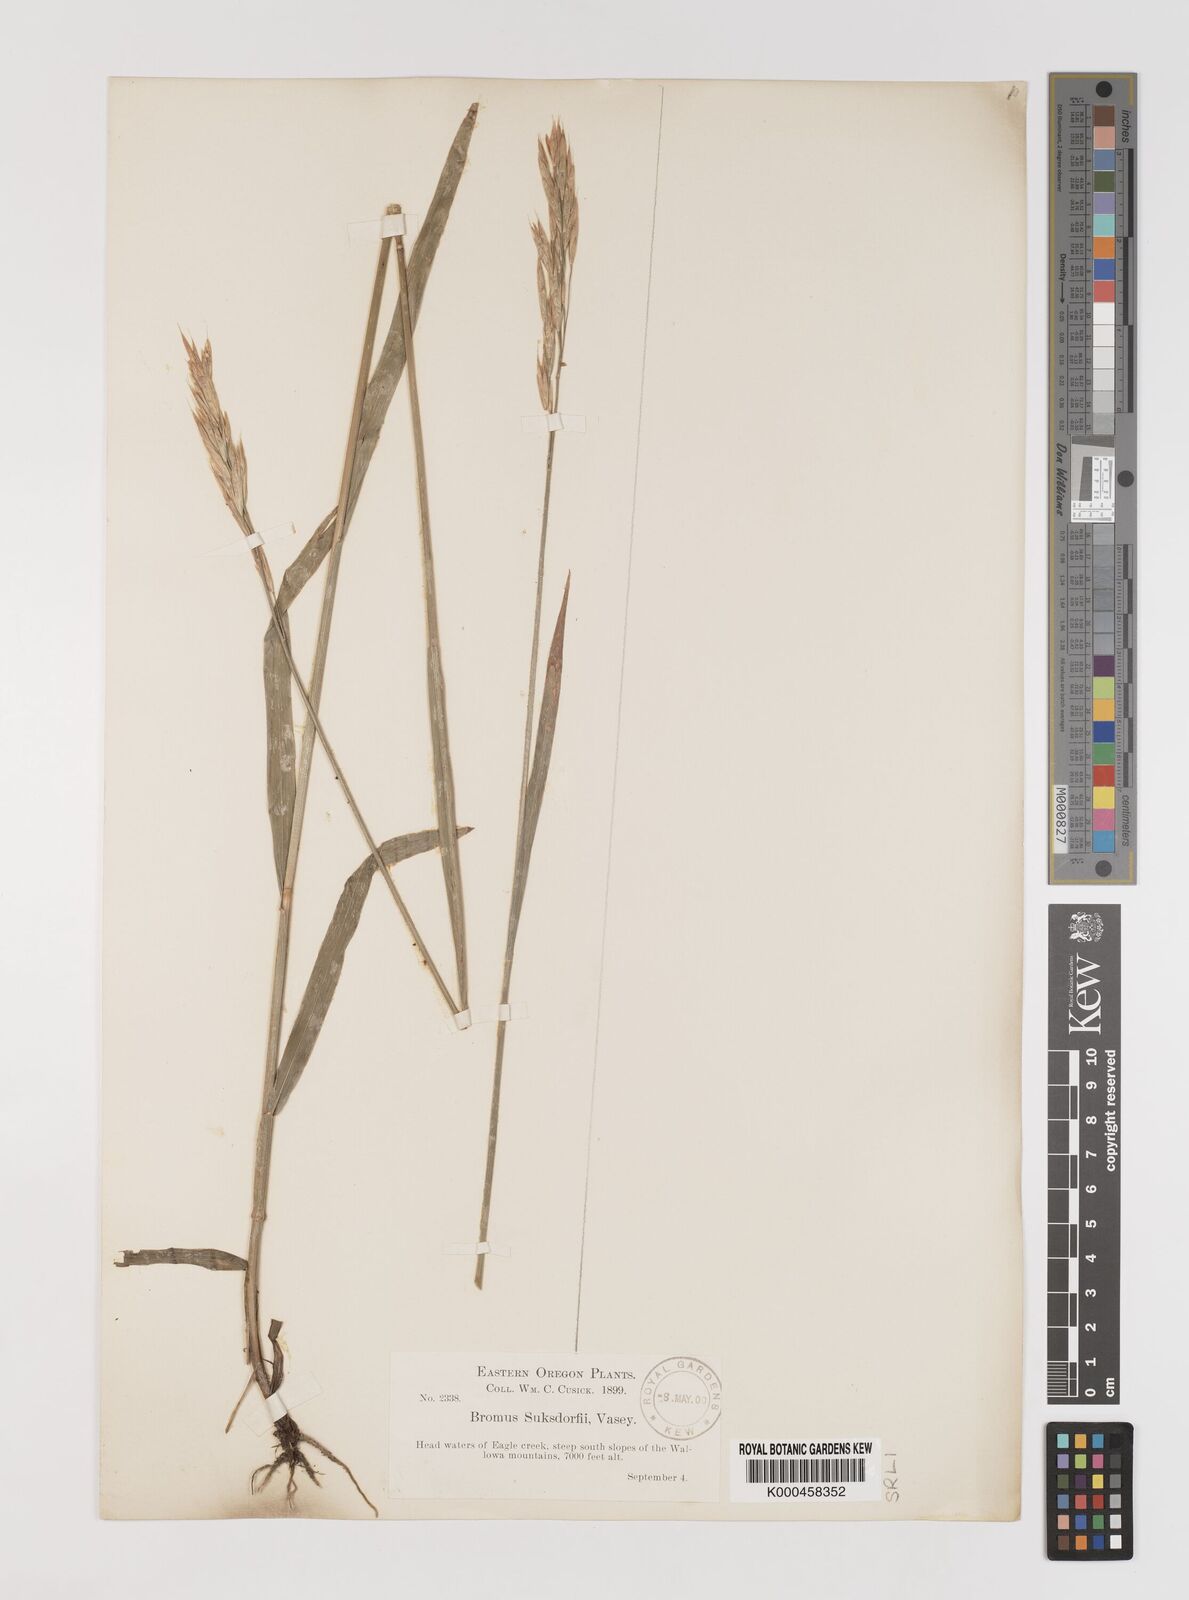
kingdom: Plantae
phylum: Tracheophyta
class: Liliopsida
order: Poales
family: Poaceae
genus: Bromus
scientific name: Bromus suksdorfii
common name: Suksdorf's brome
